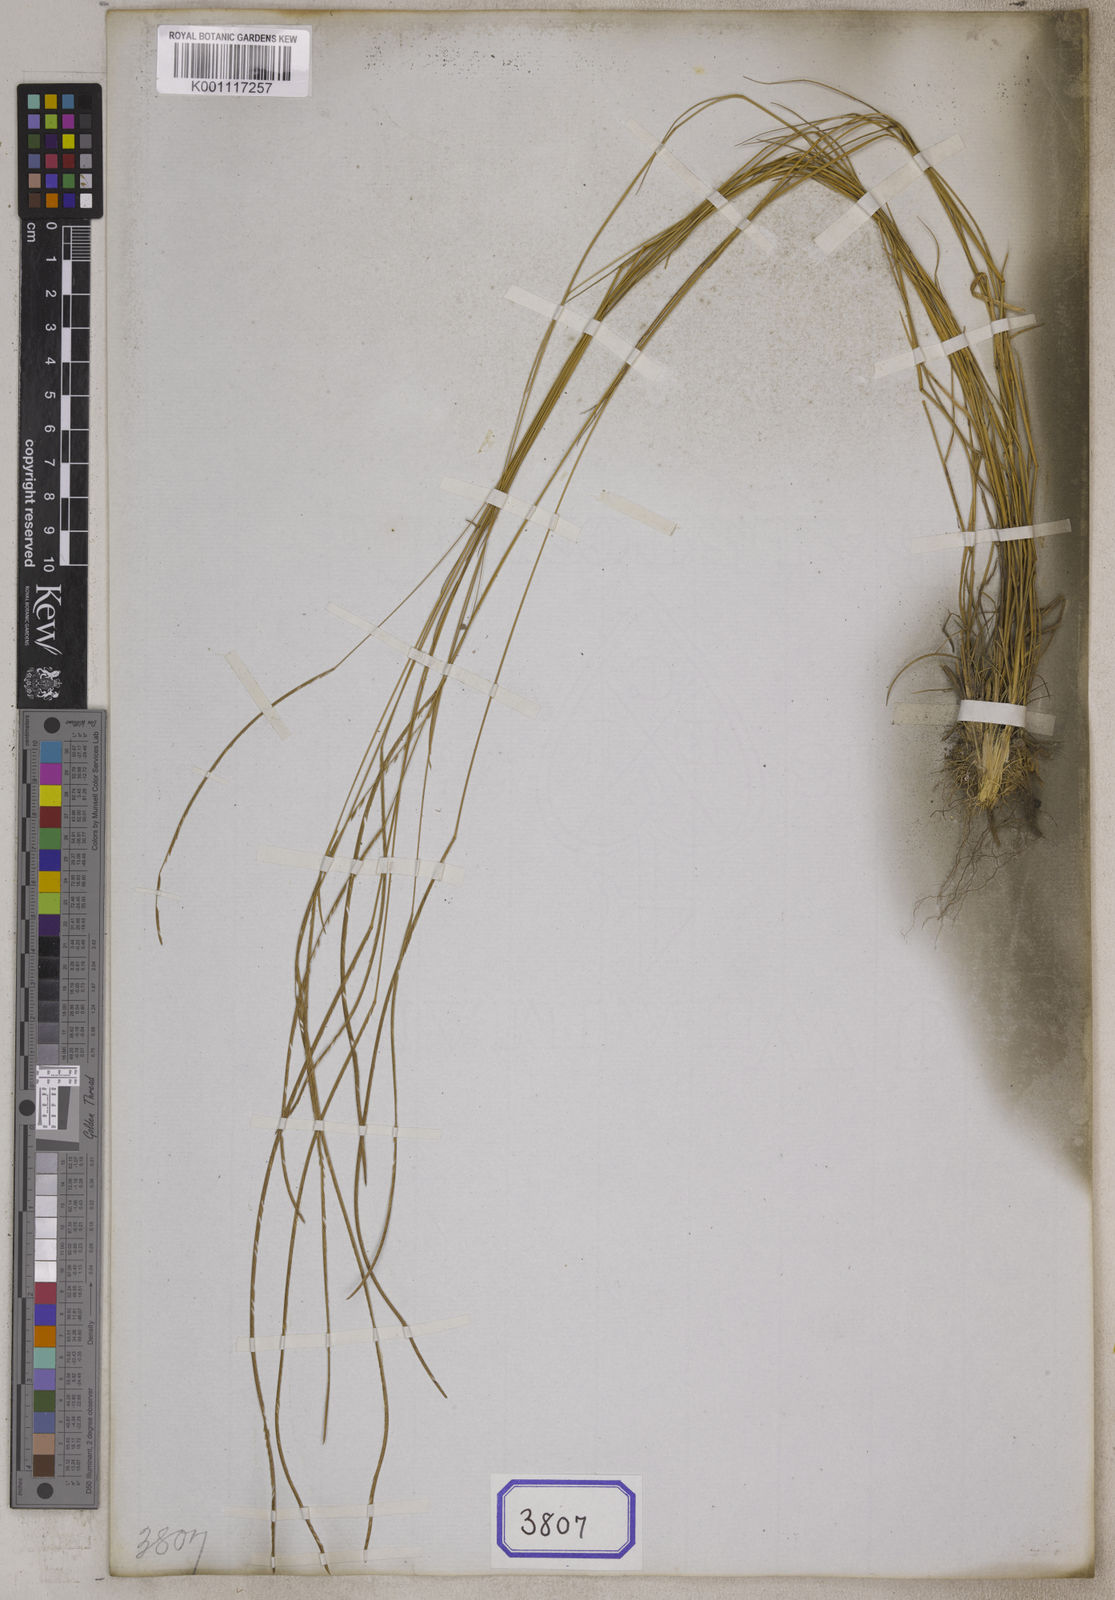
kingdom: Plantae
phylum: Tracheophyta
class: Liliopsida
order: Poales
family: Poaceae
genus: Microchloa
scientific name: Microchloa
